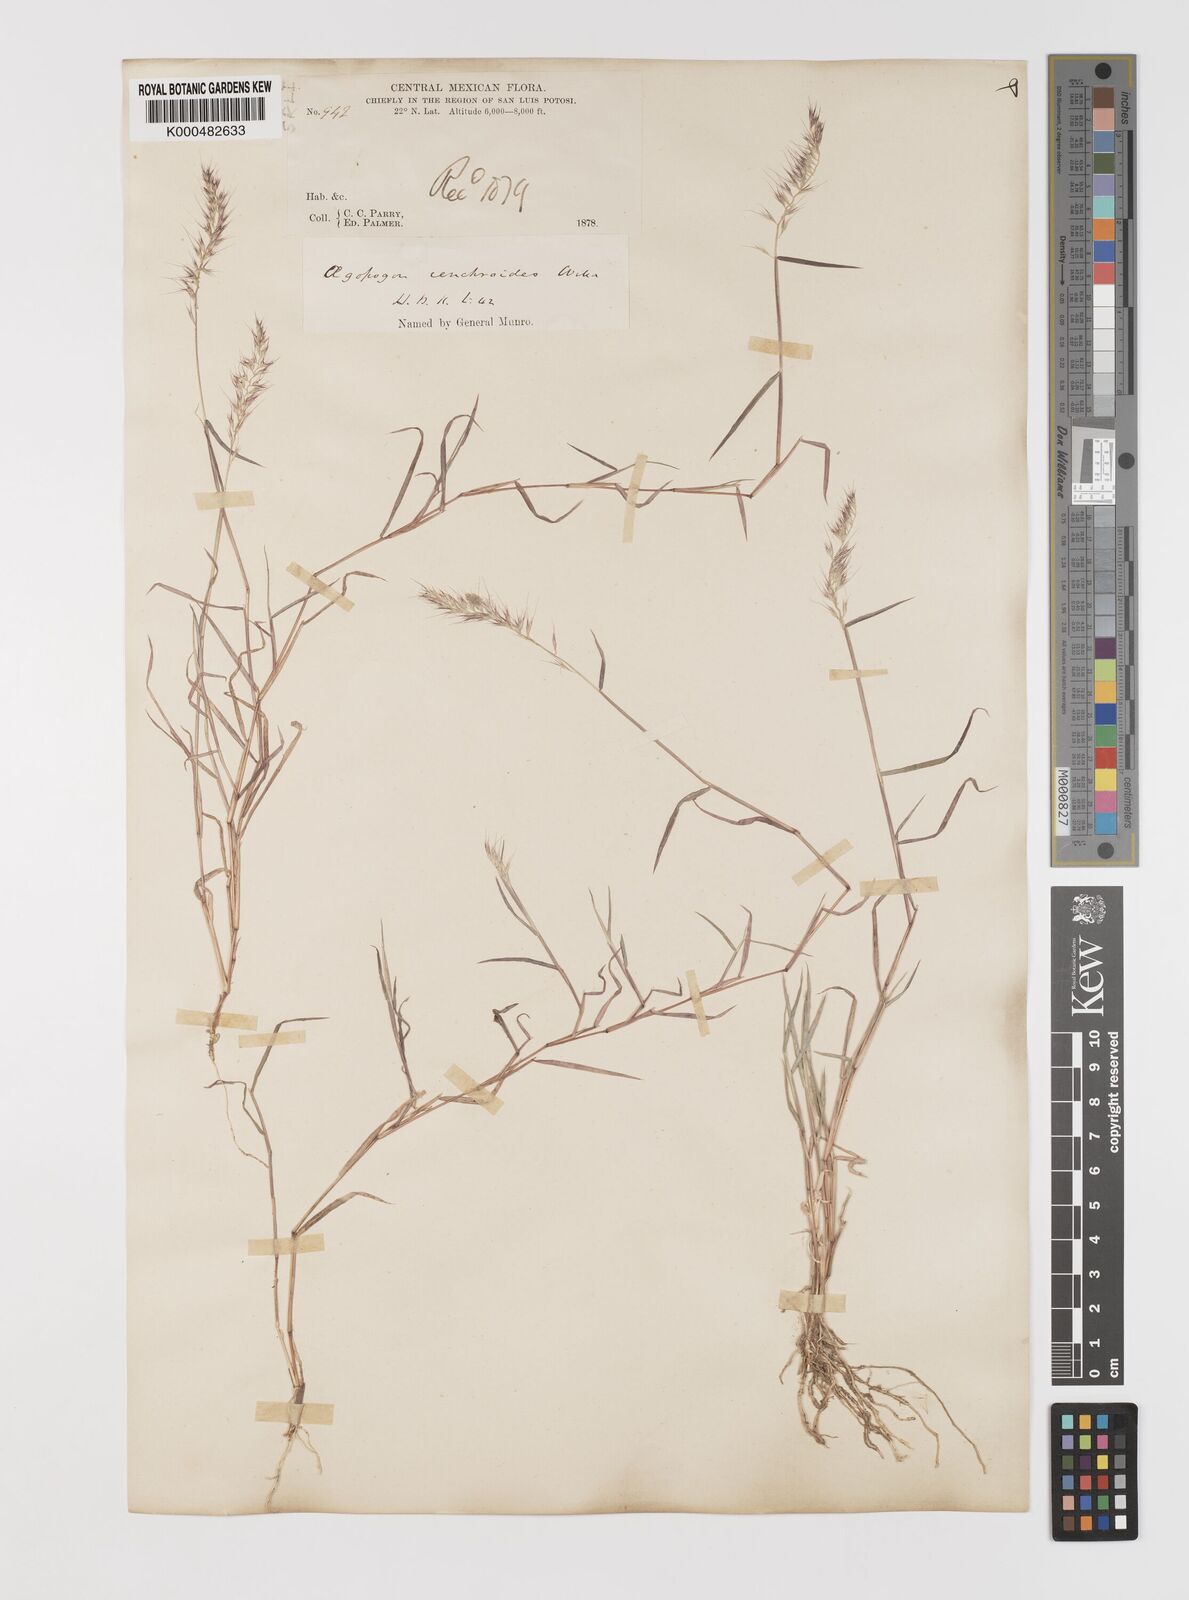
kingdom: Plantae
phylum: Tracheophyta
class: Liliopsida
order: Poales
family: Poaceae
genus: Muhlenbergia
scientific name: Muhlenbergia
